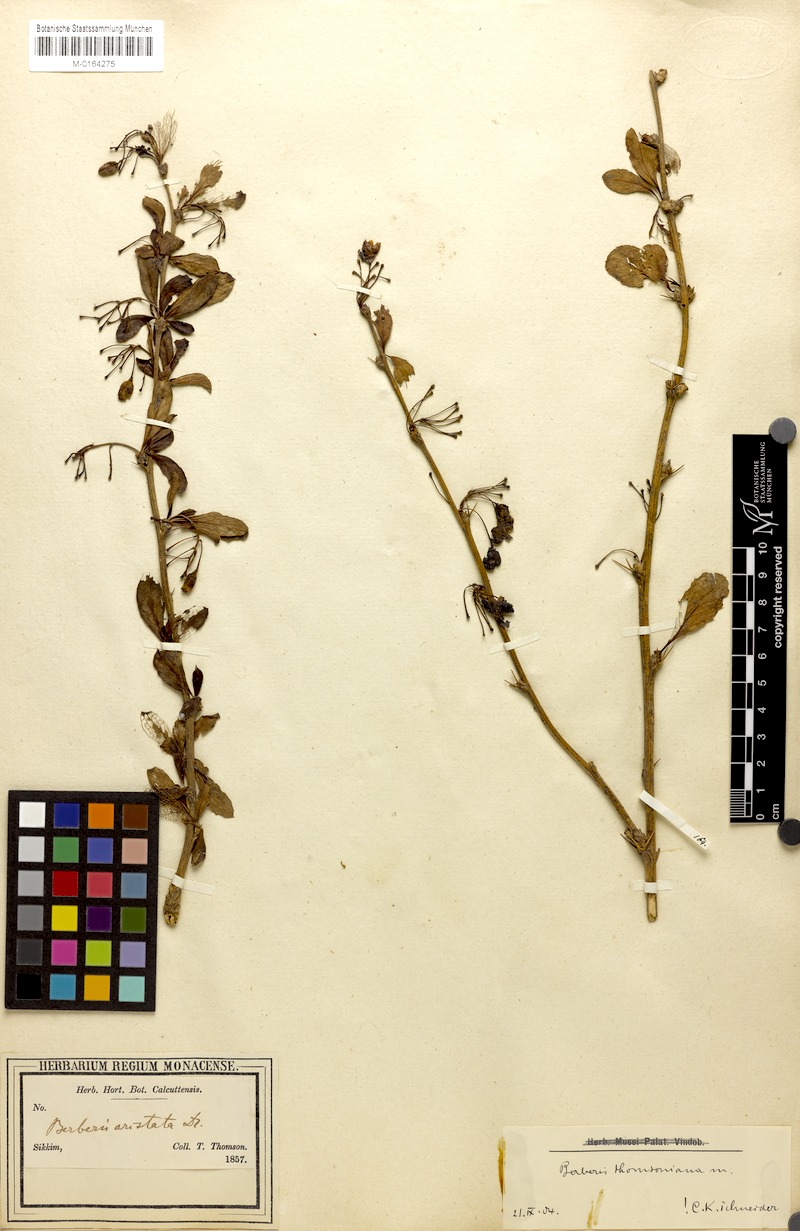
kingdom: Plantae
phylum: Tracheophyta
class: Magnoliopsida
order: Ranunculales
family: Berberidaceae
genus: Berberis
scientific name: Berberis aristata
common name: Indian barberry
